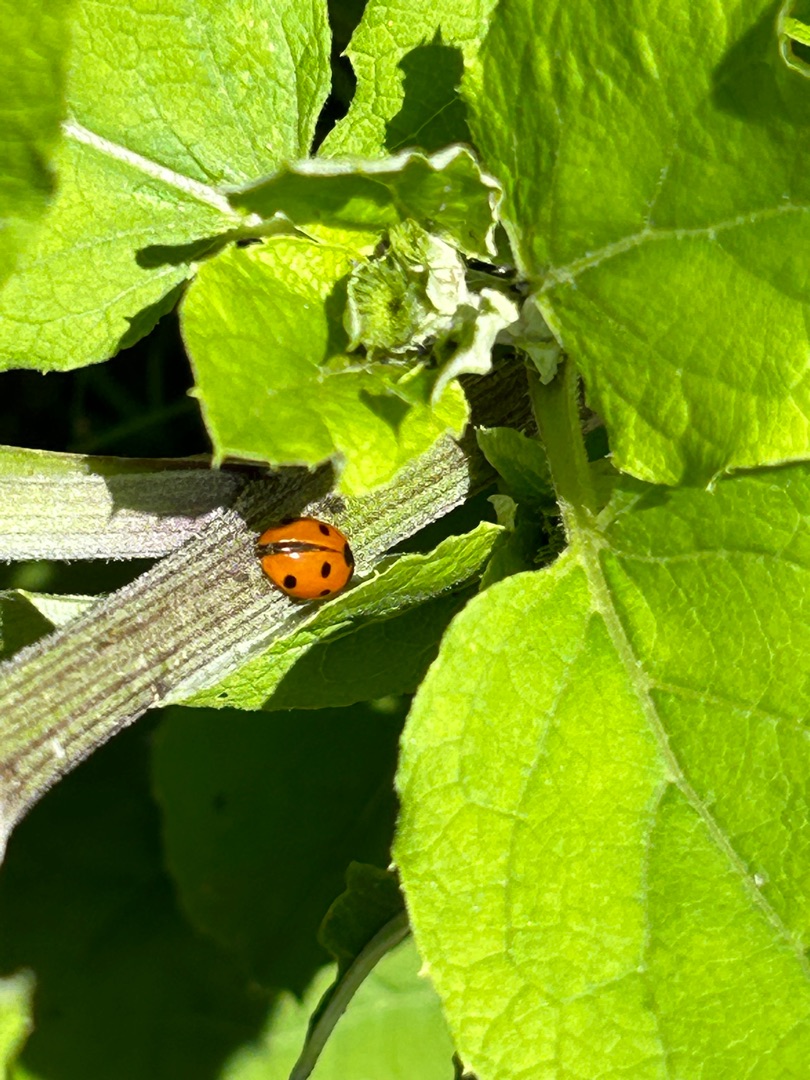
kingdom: Animalia
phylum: Arthropoda
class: Insecta
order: Coleoptera
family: Coccinellidae
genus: Coccinella
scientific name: Coccinella septempunctata
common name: Syvplettet mariehøne
